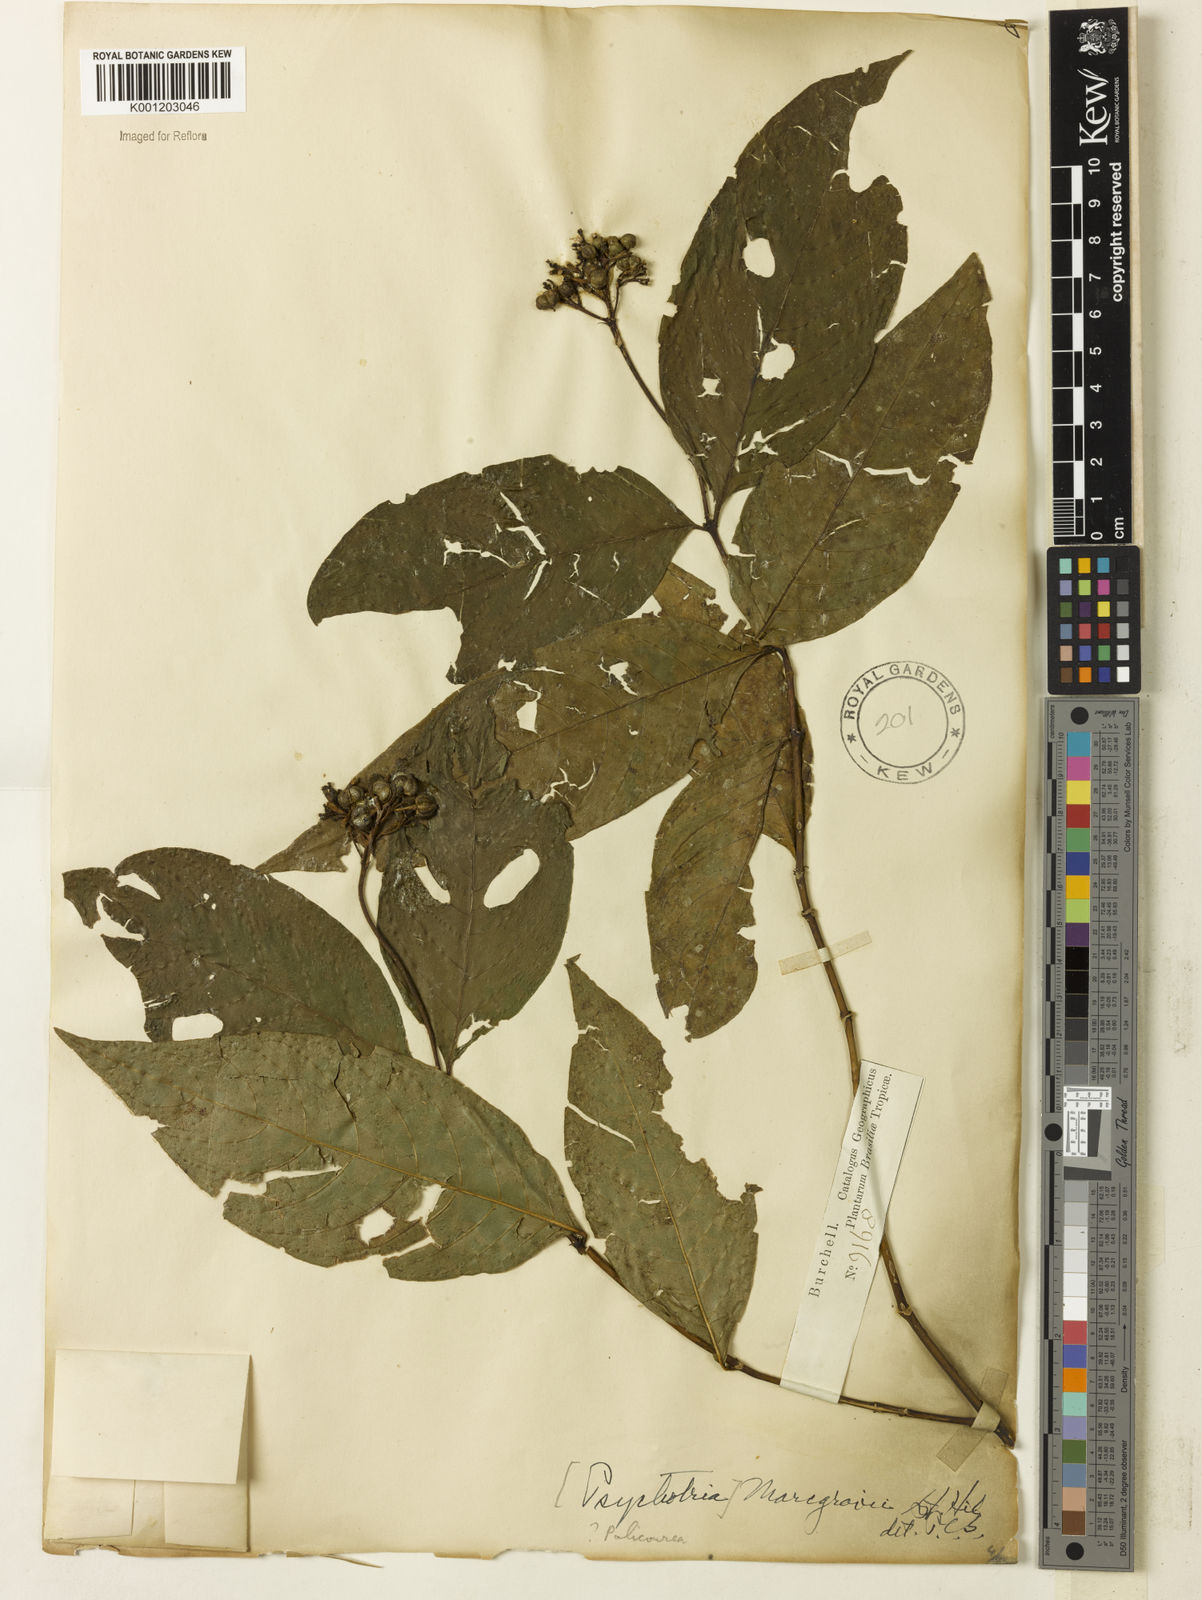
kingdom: Plantae
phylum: Tracheophyta
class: Magnoliopsida
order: Gentianales
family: Rubiaceae
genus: Palicourea
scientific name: Palicourea marcgravii
